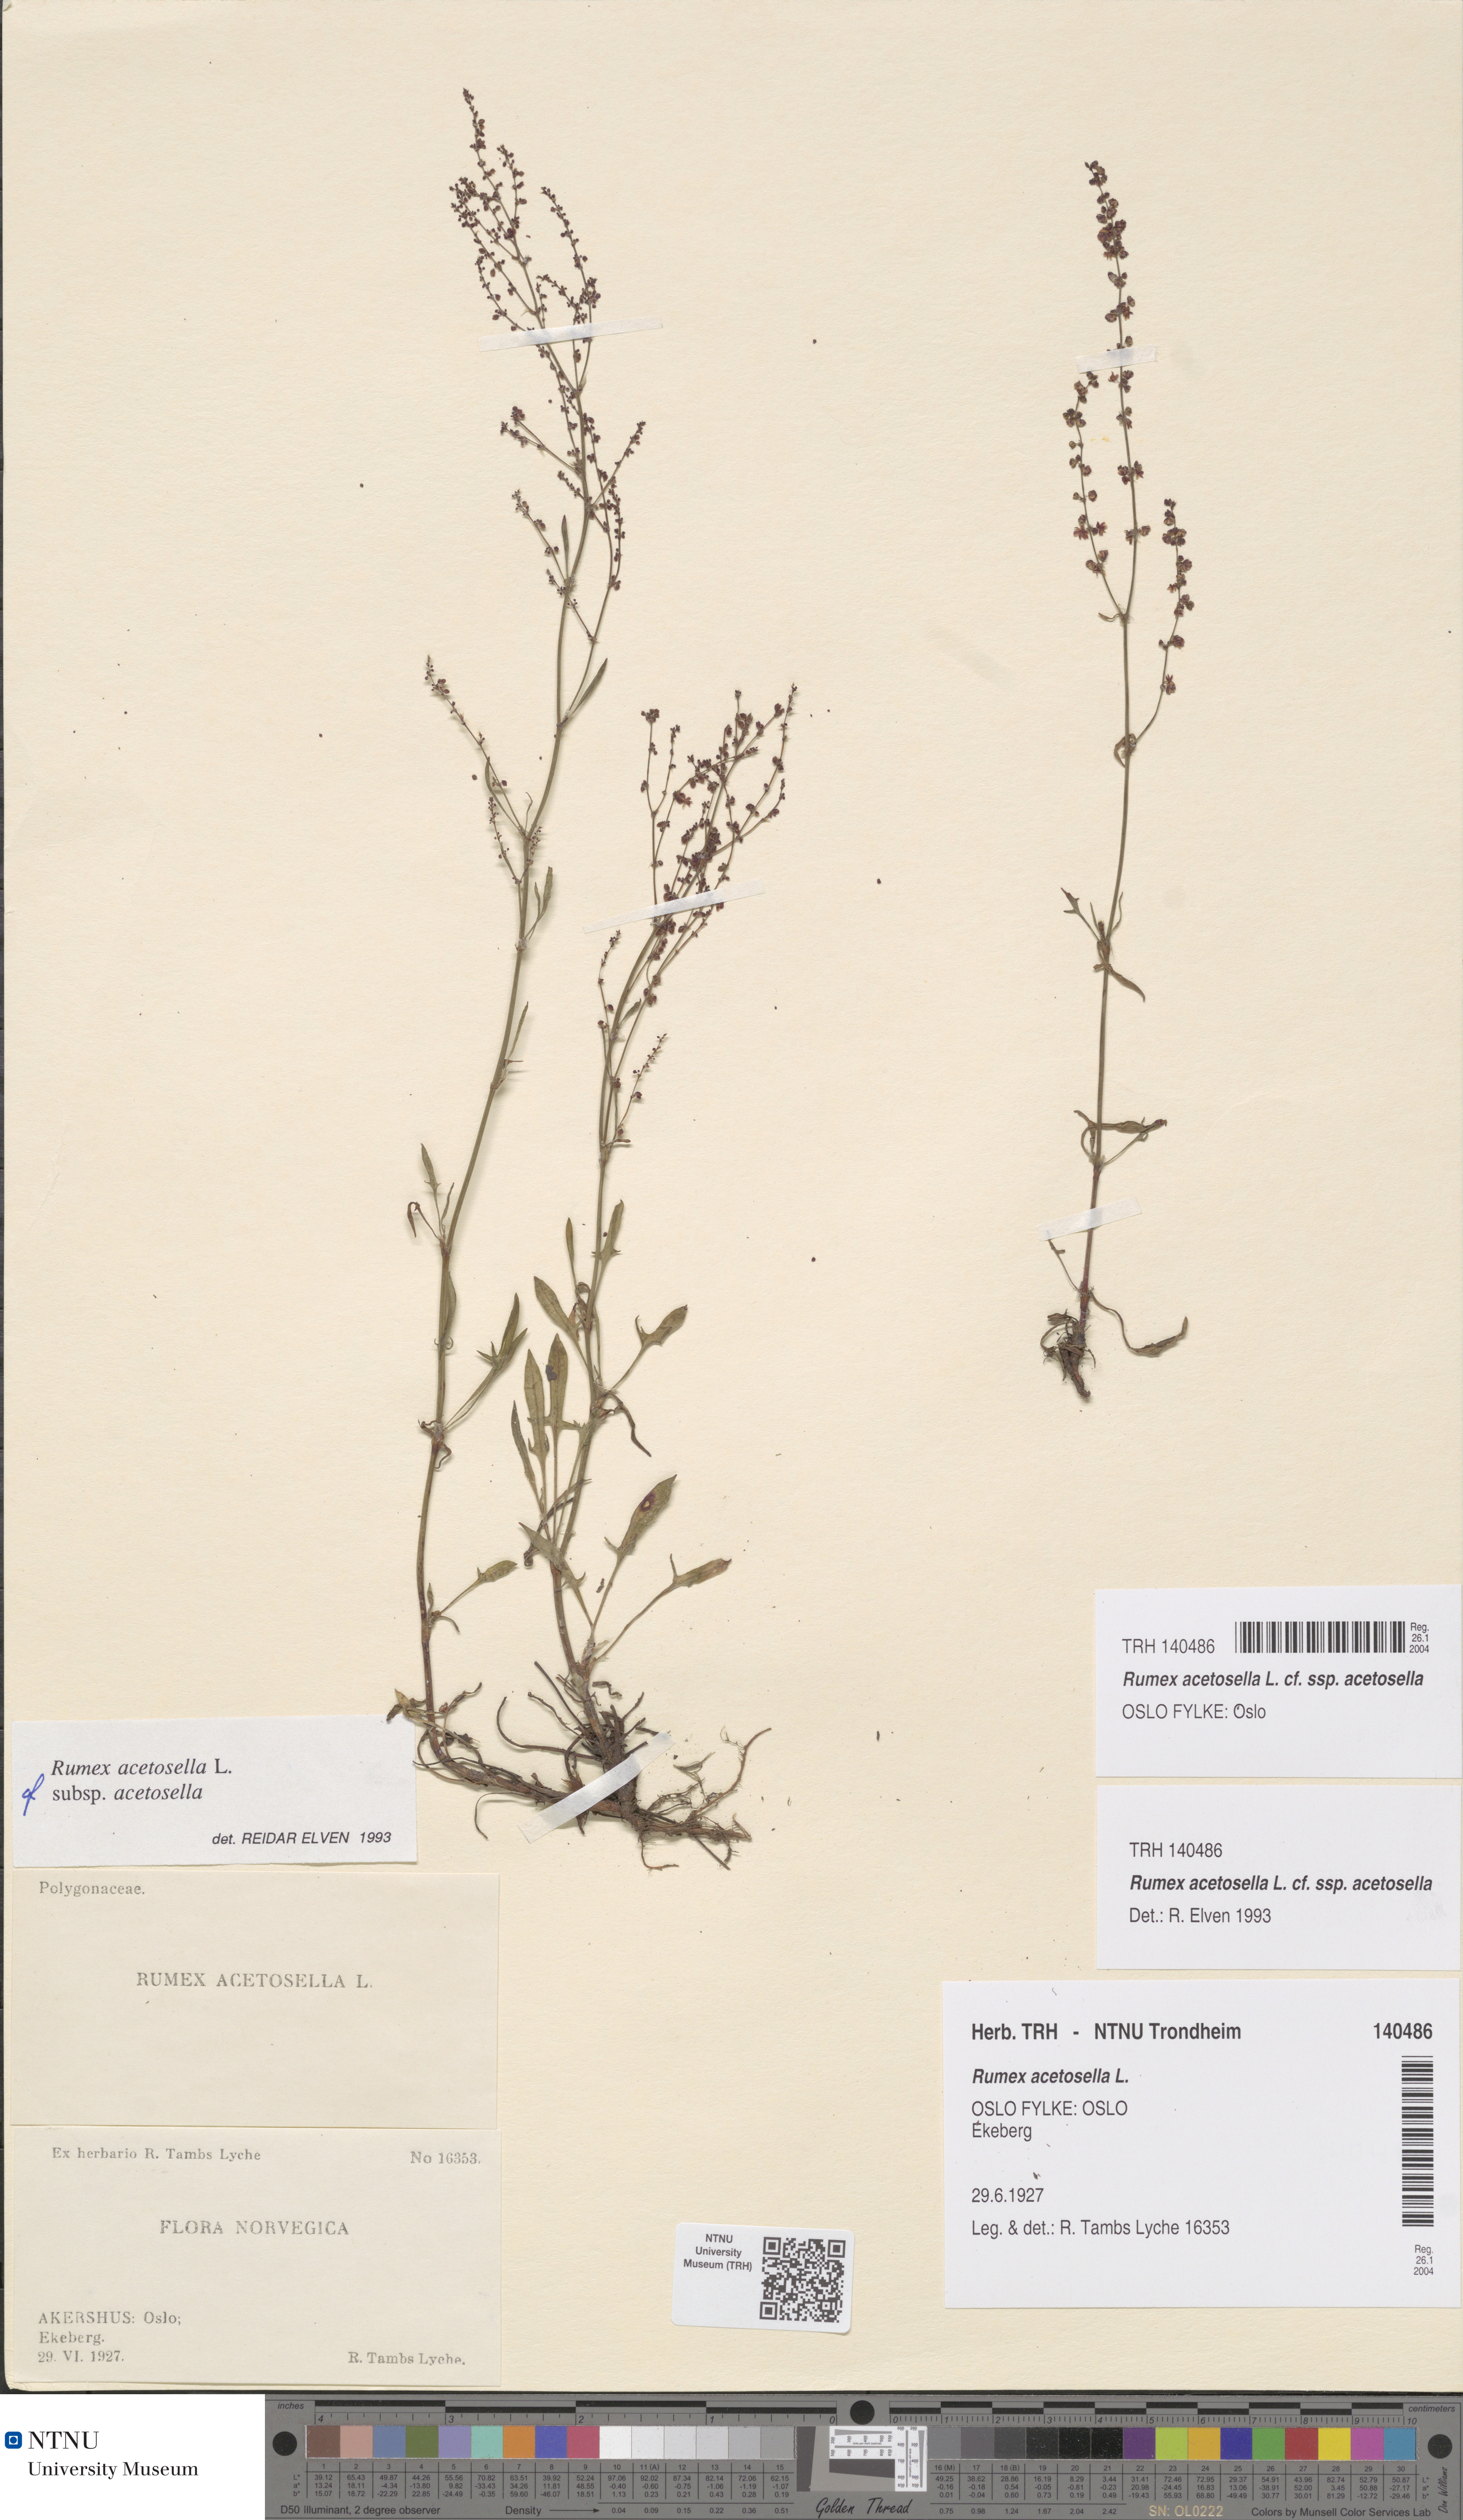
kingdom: Plantae
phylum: Tracheophyta
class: Magnoliopsida
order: Caryophyllales
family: Polygonaceae
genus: Rumex
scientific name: Rumex acetosella
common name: Common sheep sorrel
